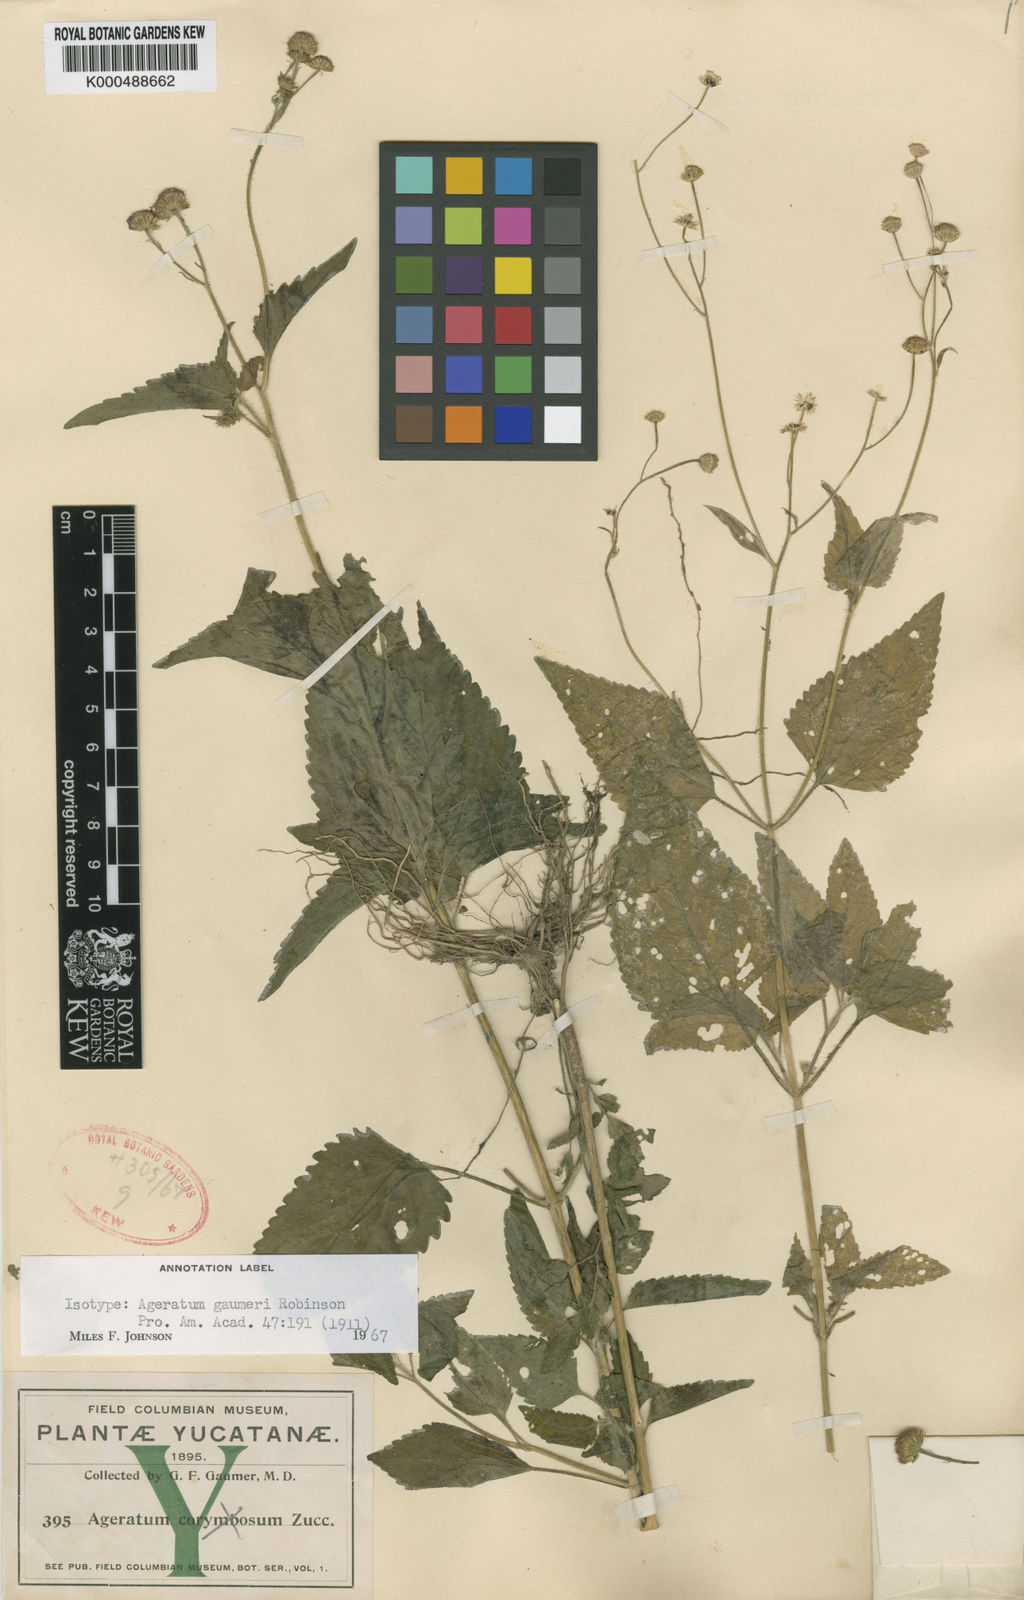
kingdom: Plantae
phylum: Tracheophyta
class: Magnoliopsida
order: Asterales
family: Asteraceae
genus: Ageratum
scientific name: Ageratum gaumeri
